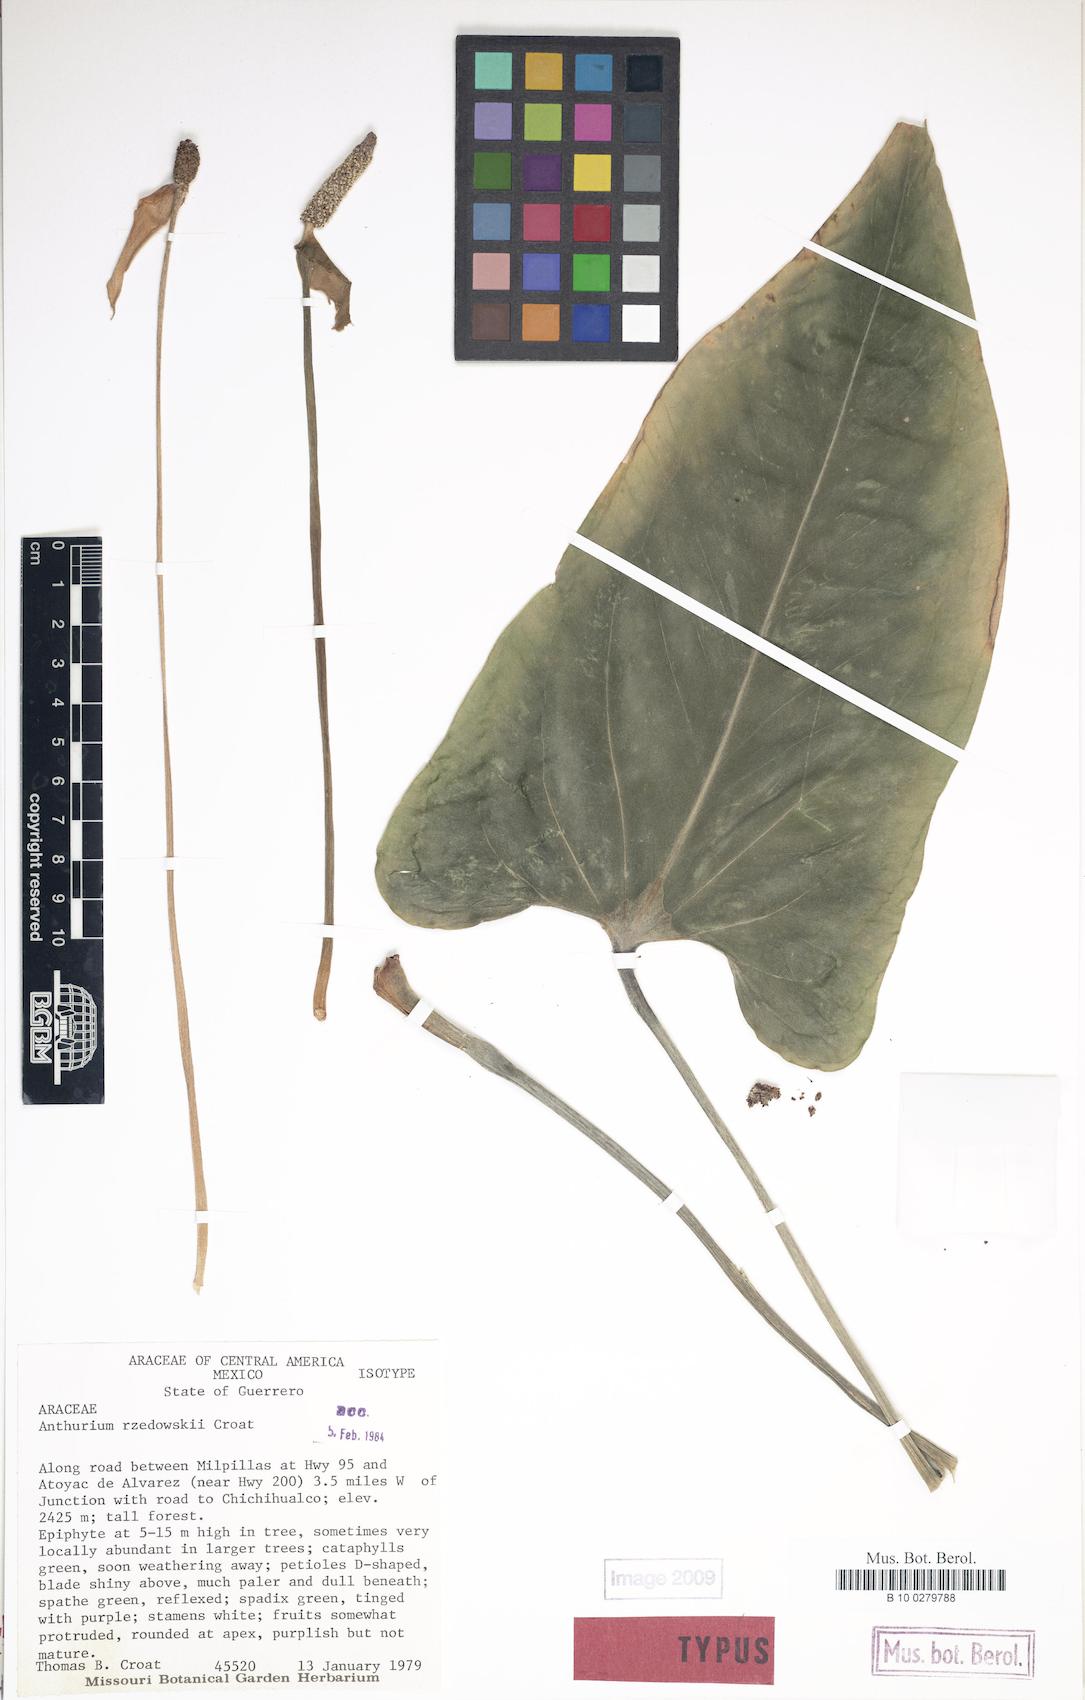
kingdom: Plantae
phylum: Tracheophyta
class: Liliopsida
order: Alismatales
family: Araceae
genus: Anthurium
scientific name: Anthurium rzedowskii
